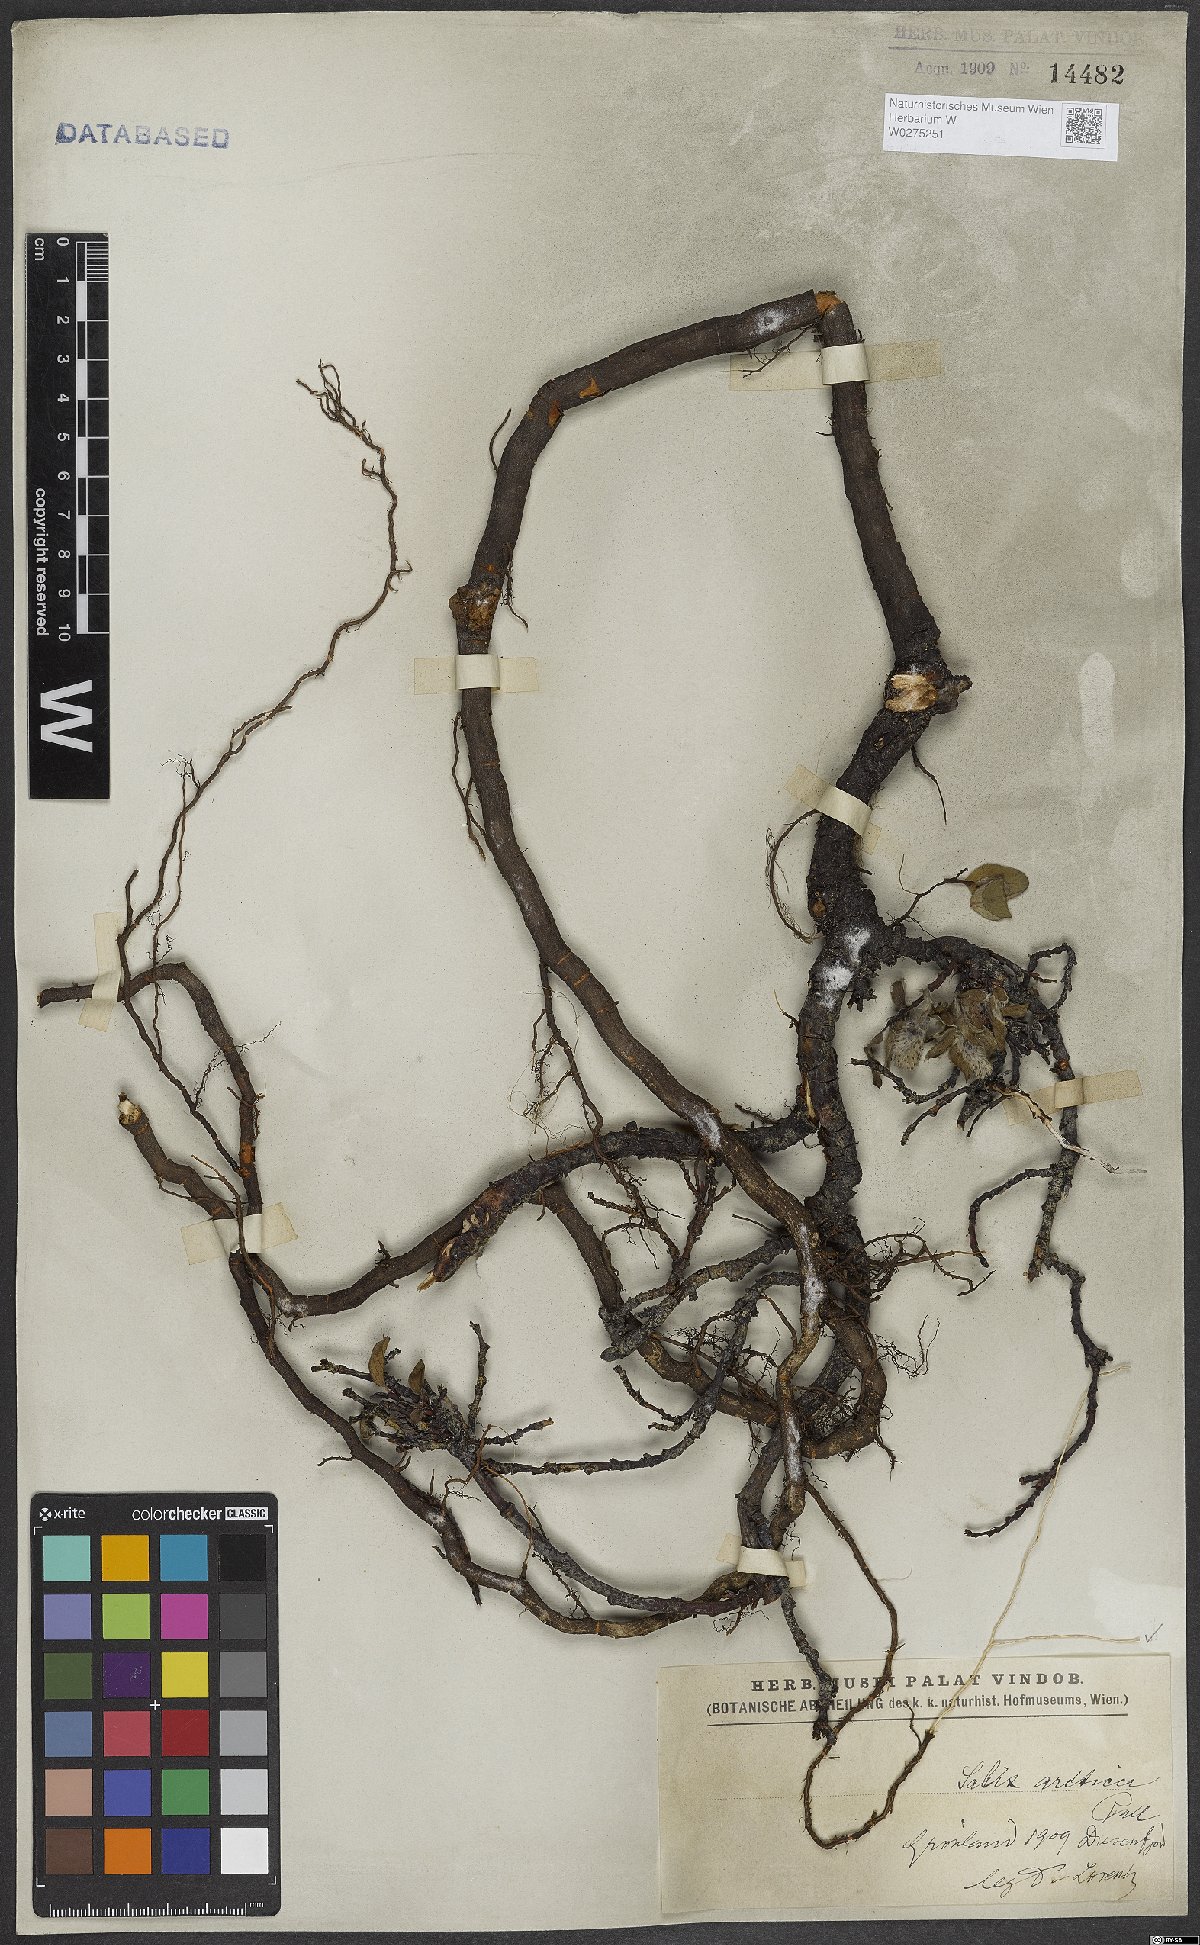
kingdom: Plantae
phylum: Tracheophyta
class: Magnoliopsida
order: Malpighiales
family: Salicaceae
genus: Salix
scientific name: Salix arctica
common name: Arctic willow
